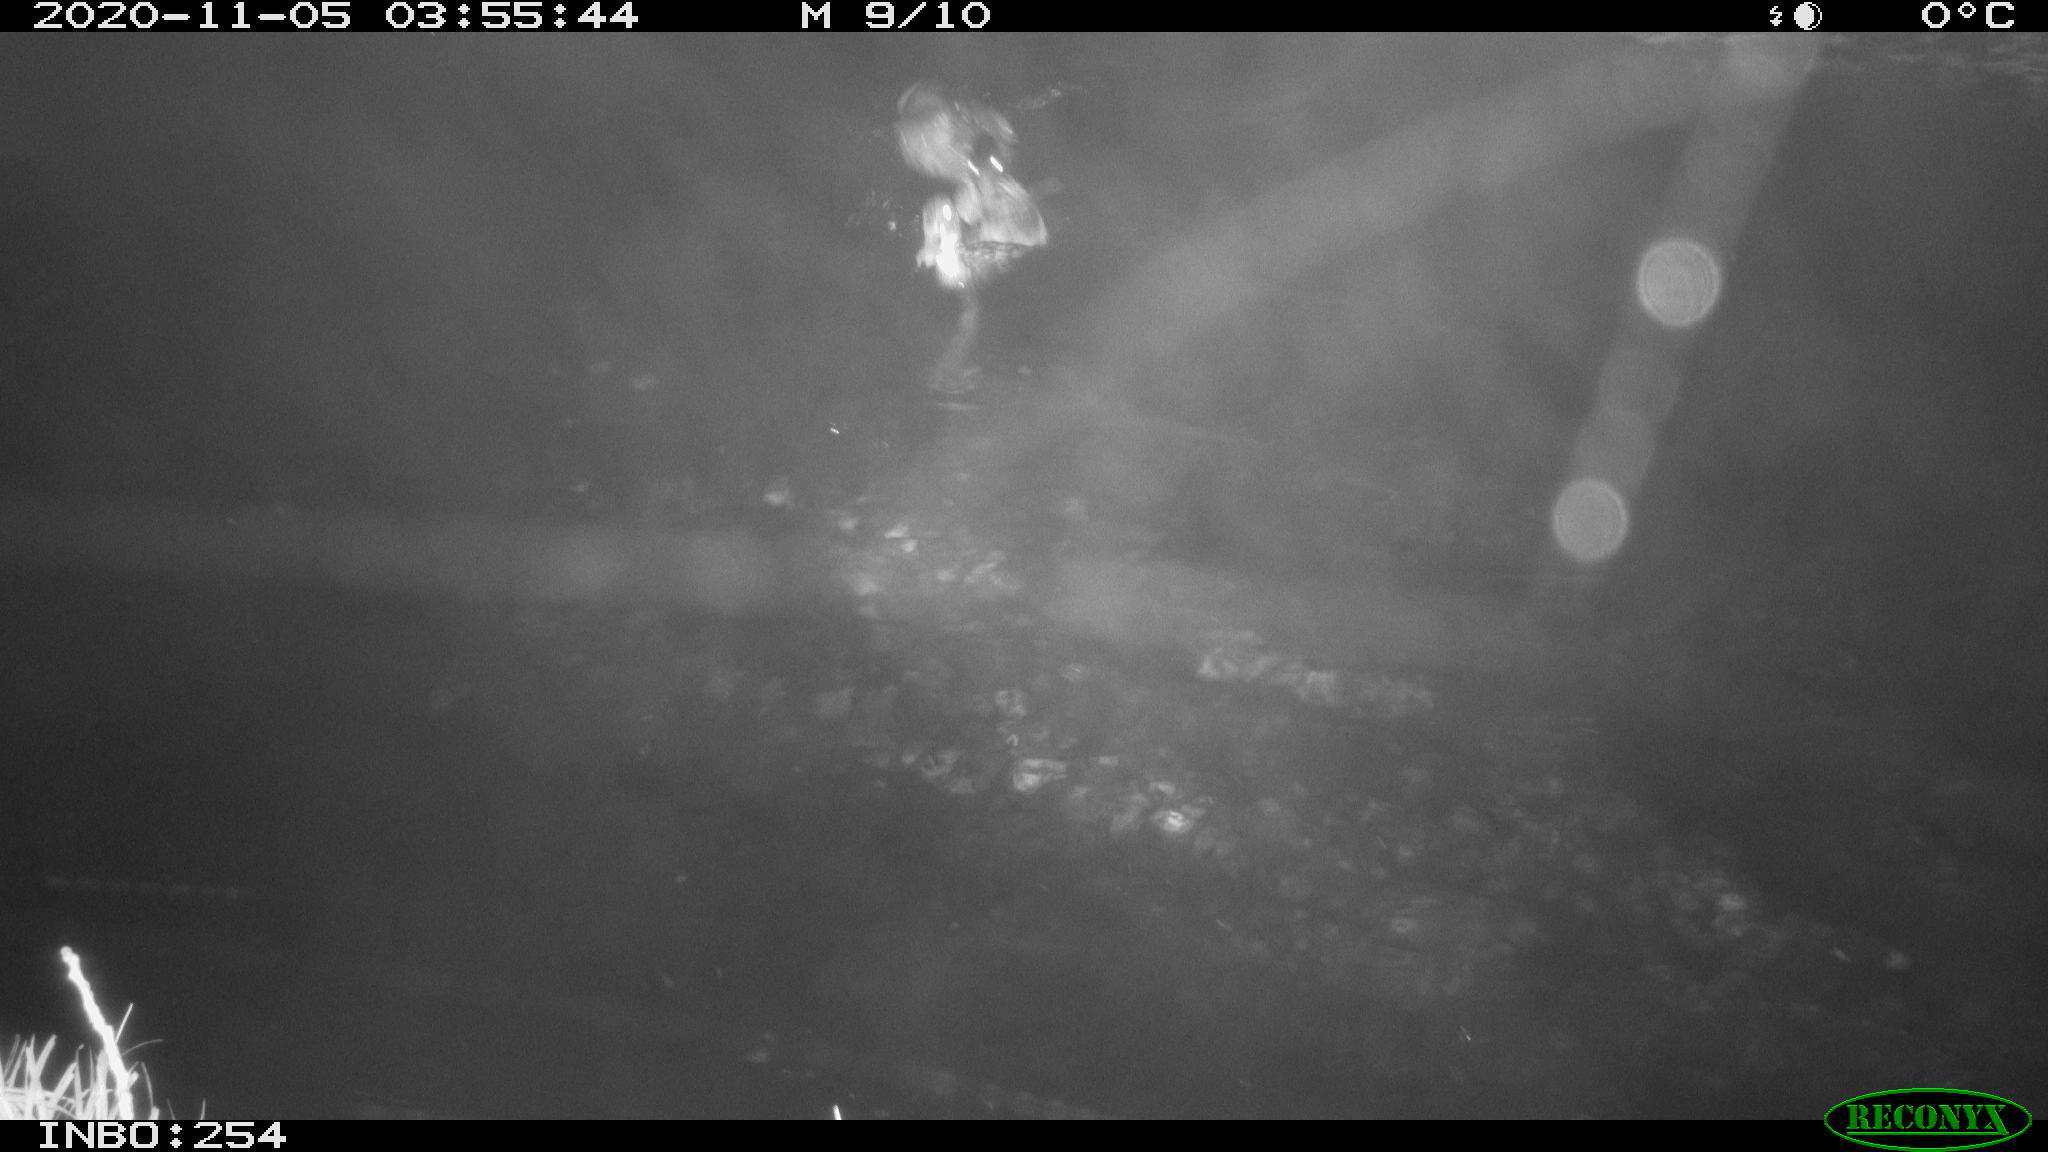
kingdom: Animalia
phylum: Chordata
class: Aves
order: Anseriformes
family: Anatidae
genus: Anas
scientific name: Anas platyrhynchos
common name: Mallard
